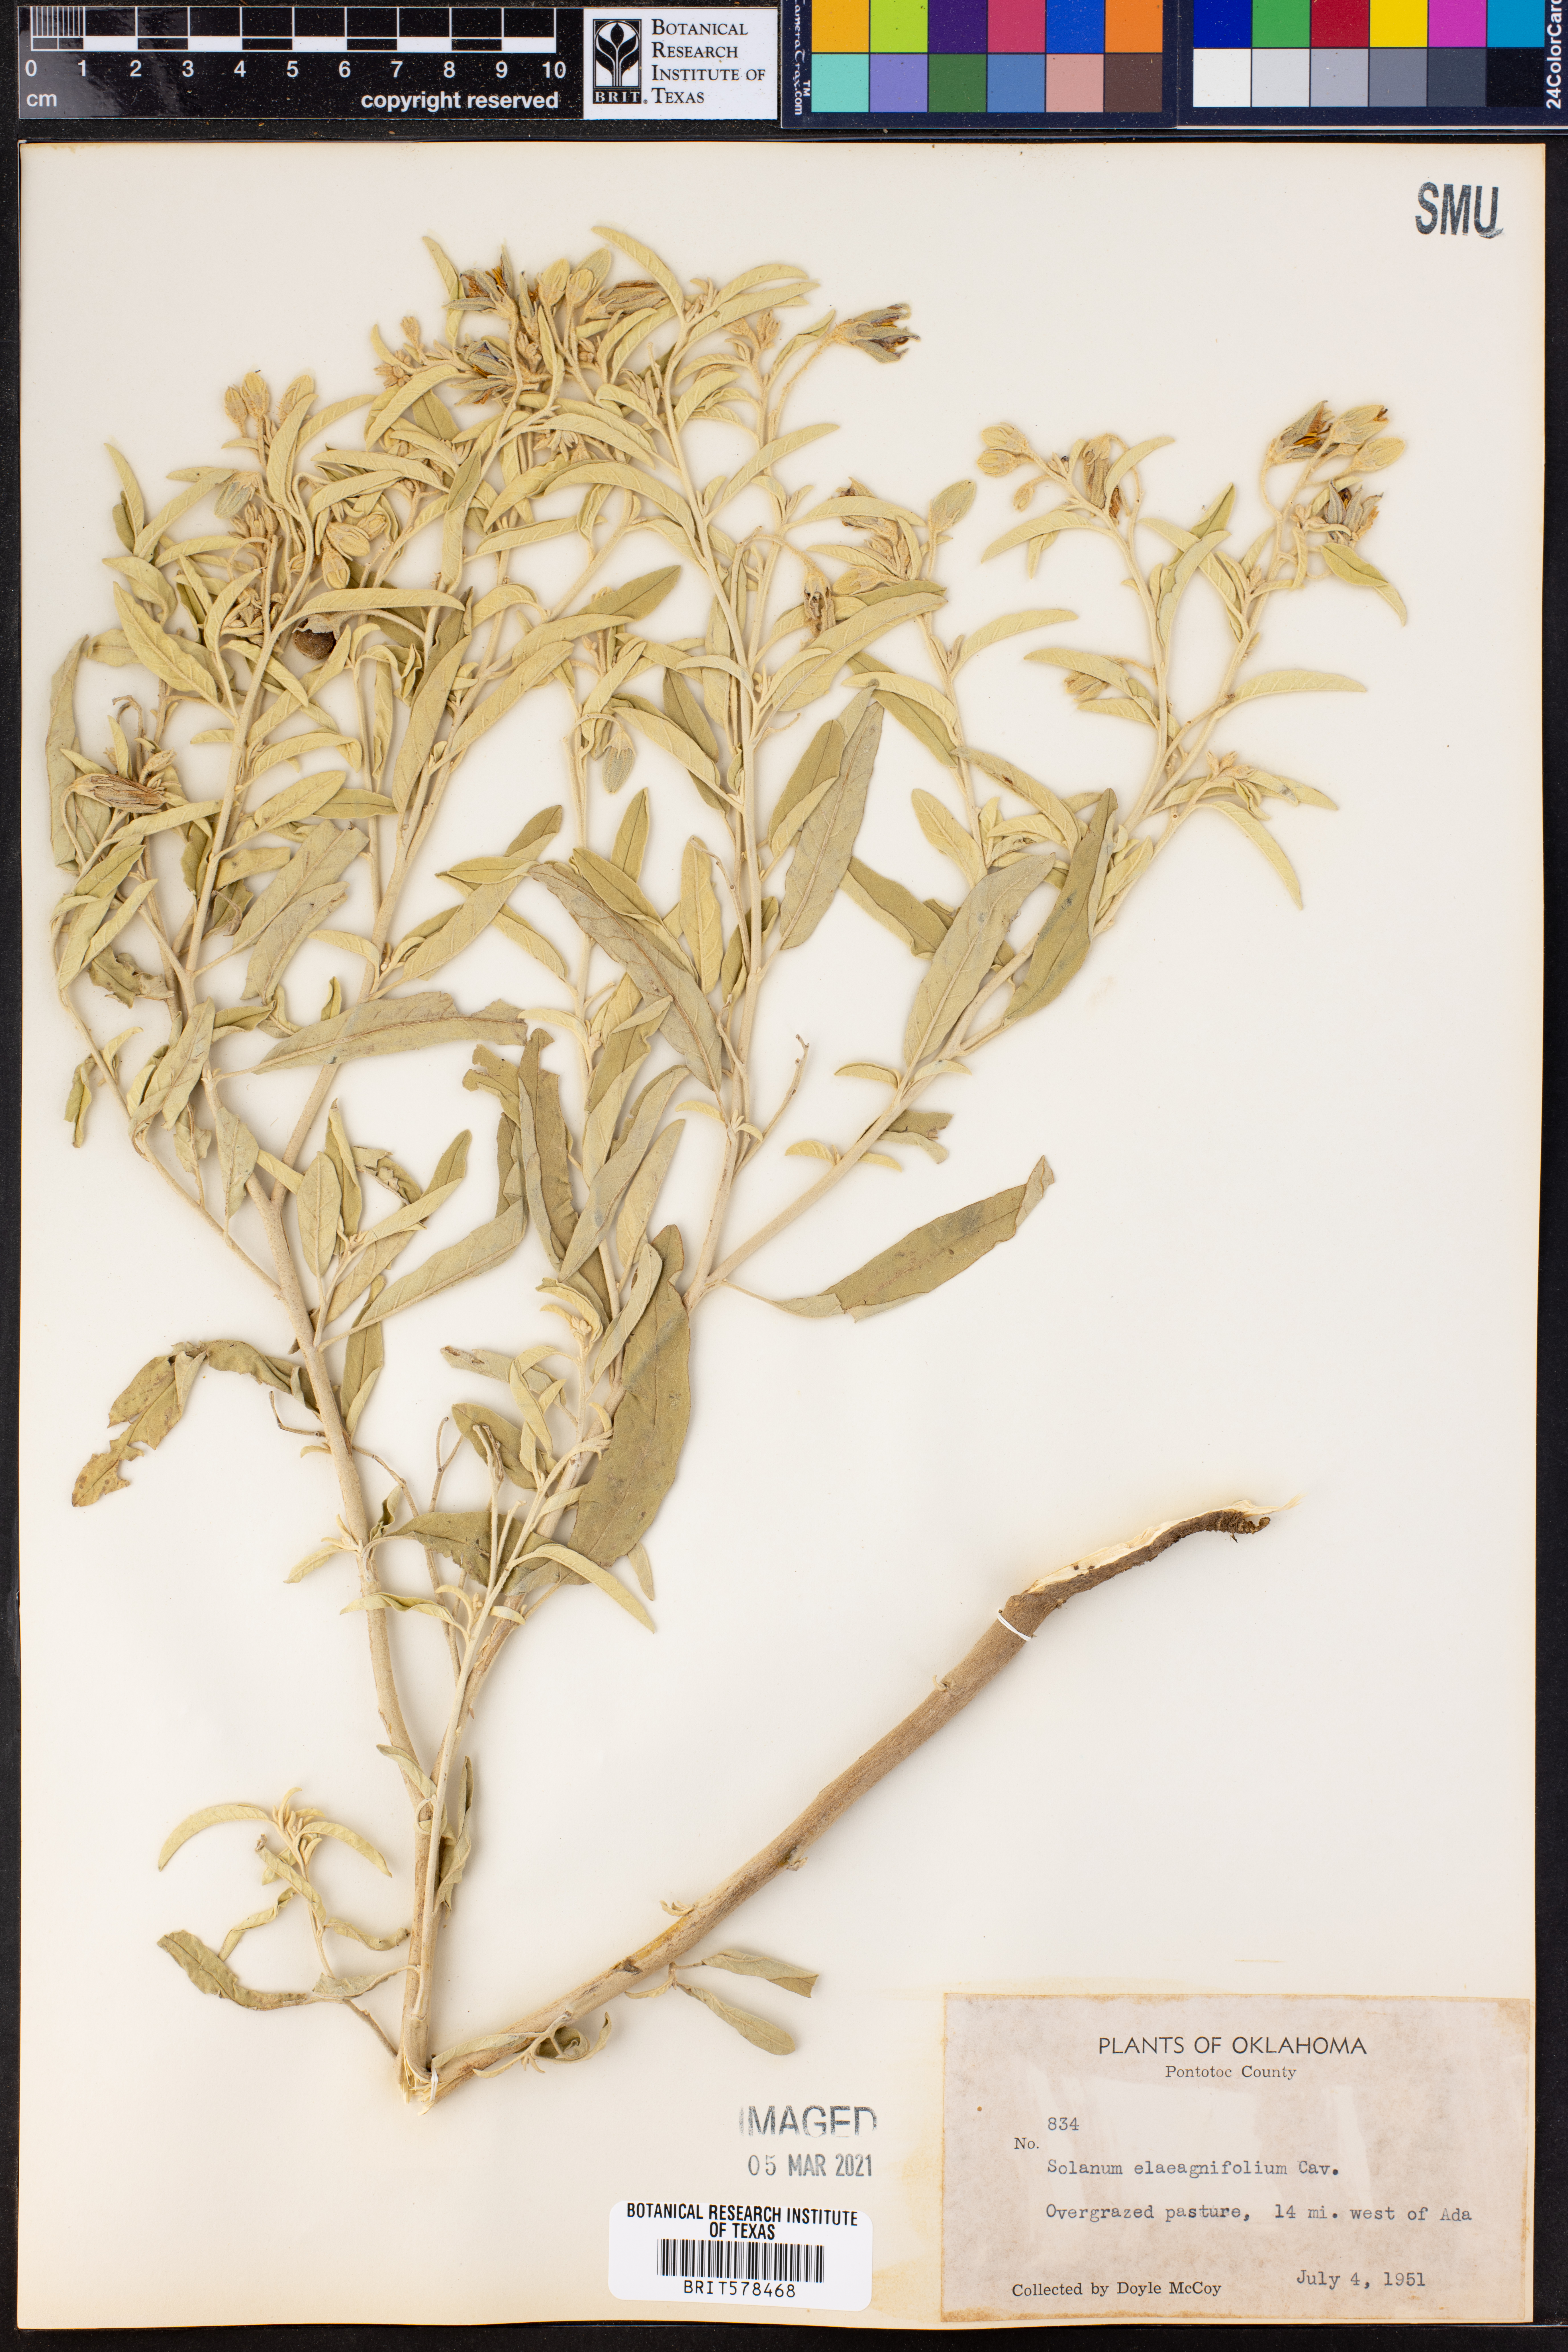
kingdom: Plantae
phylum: Tracheophyta
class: Magnoliopsida
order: Solanales
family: Solanaceae
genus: Solanum
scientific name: Solanum elaeagnifolium
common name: Silverleaf nightshade
